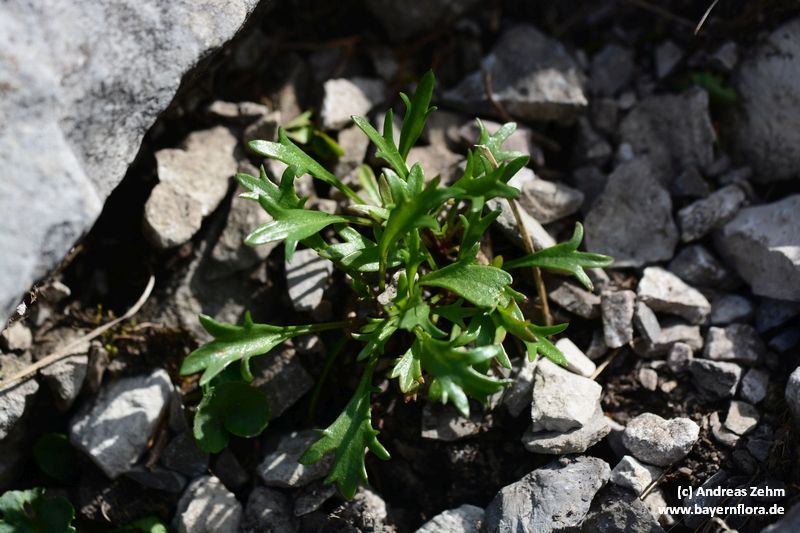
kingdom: Plantae
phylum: Tracheophyta
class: Magnoliopsida
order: Asterales
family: Asteraceae
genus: Leucanthemum
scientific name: Leucanthemum halleri
